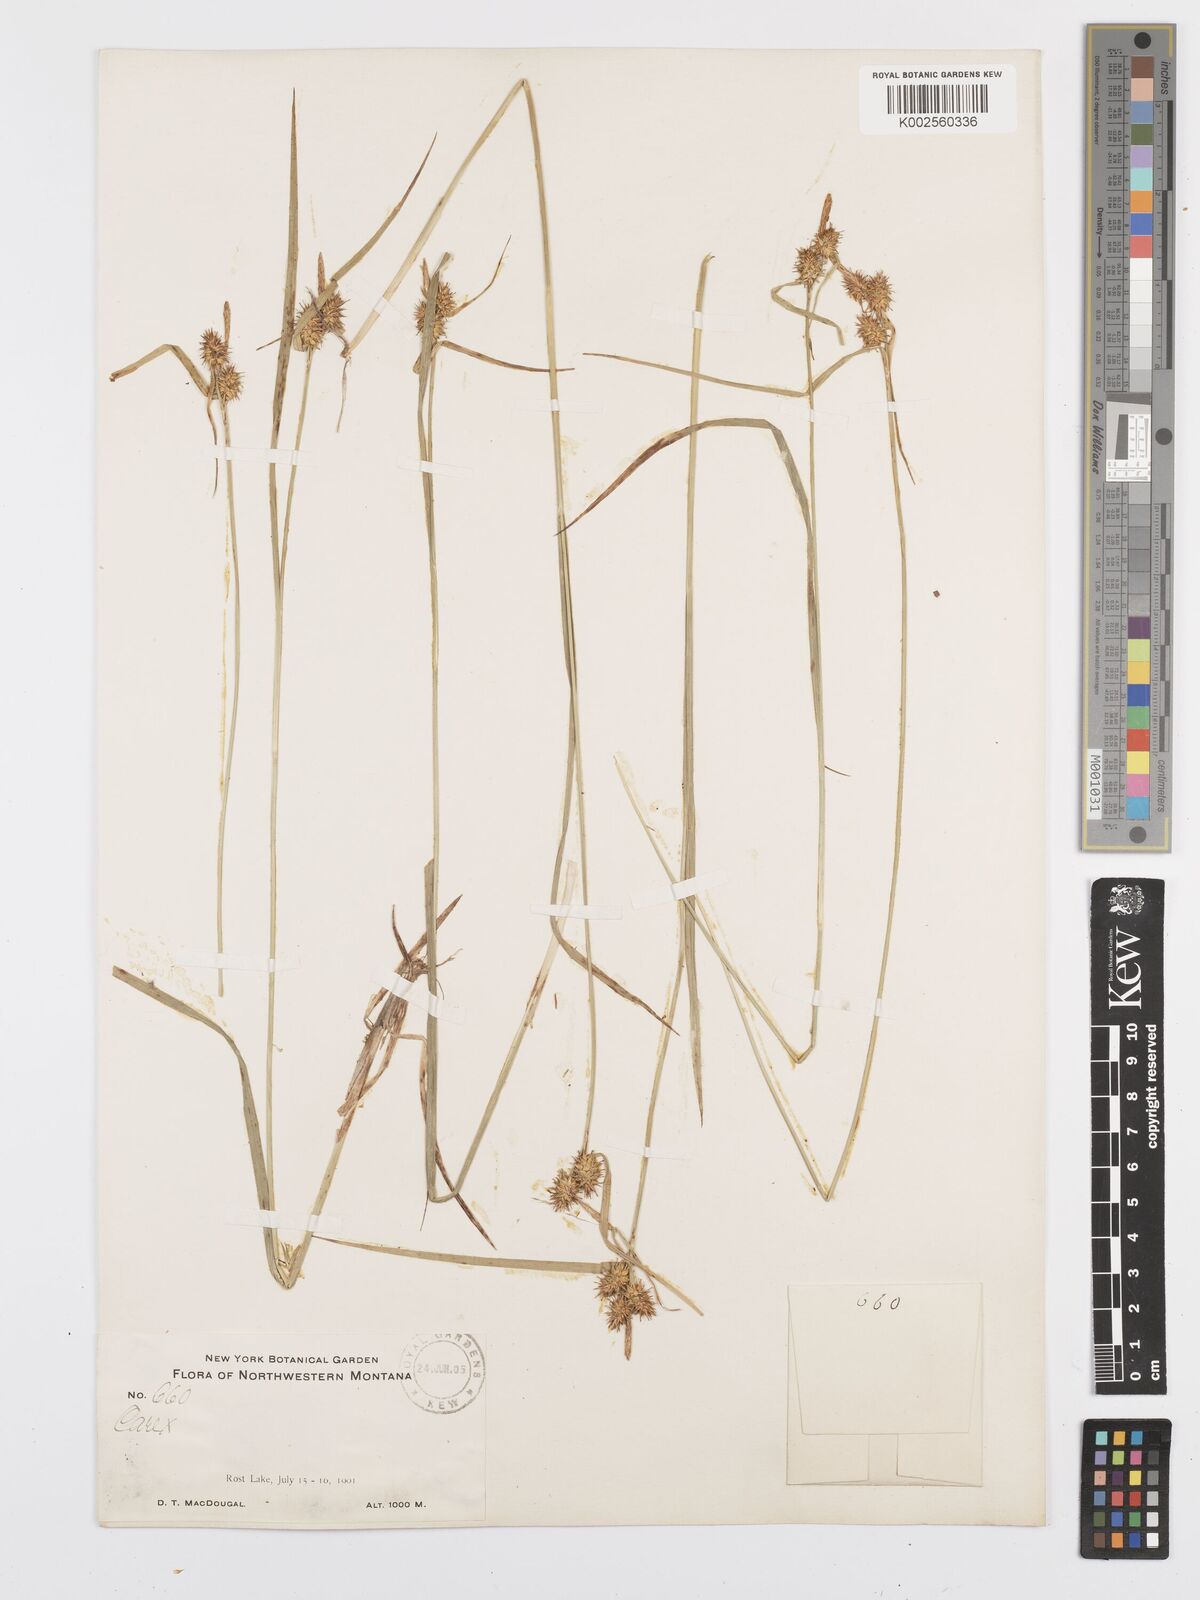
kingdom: Plantae
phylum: Tracheophyta
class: Liliopsida
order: Poales
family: Cyperaceae
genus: Carex
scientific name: Carex flava
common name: Large yellow-sedge
